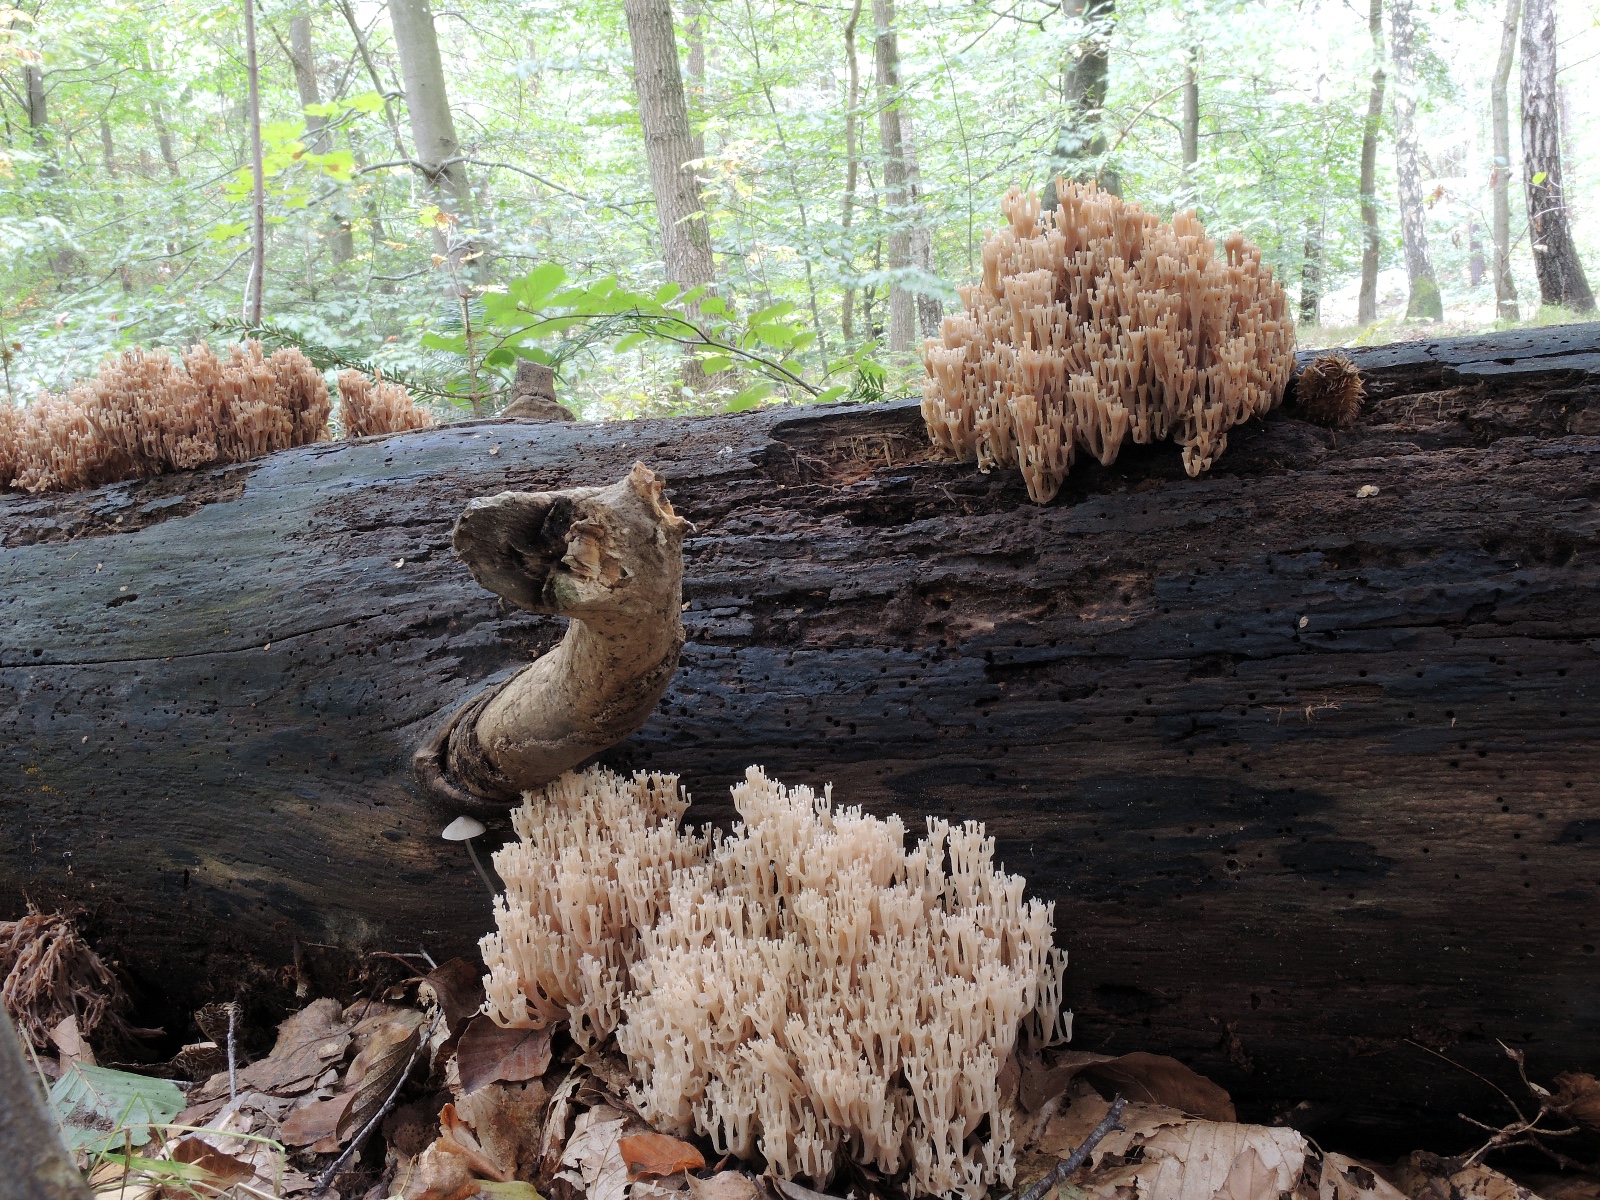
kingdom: Fungi
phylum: Basidiomycota
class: Agaricomycetes
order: Russulales
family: Auriscalpiaceae
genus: Artomyces
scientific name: Artomyces pyxidatus
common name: kandelabersvamp
